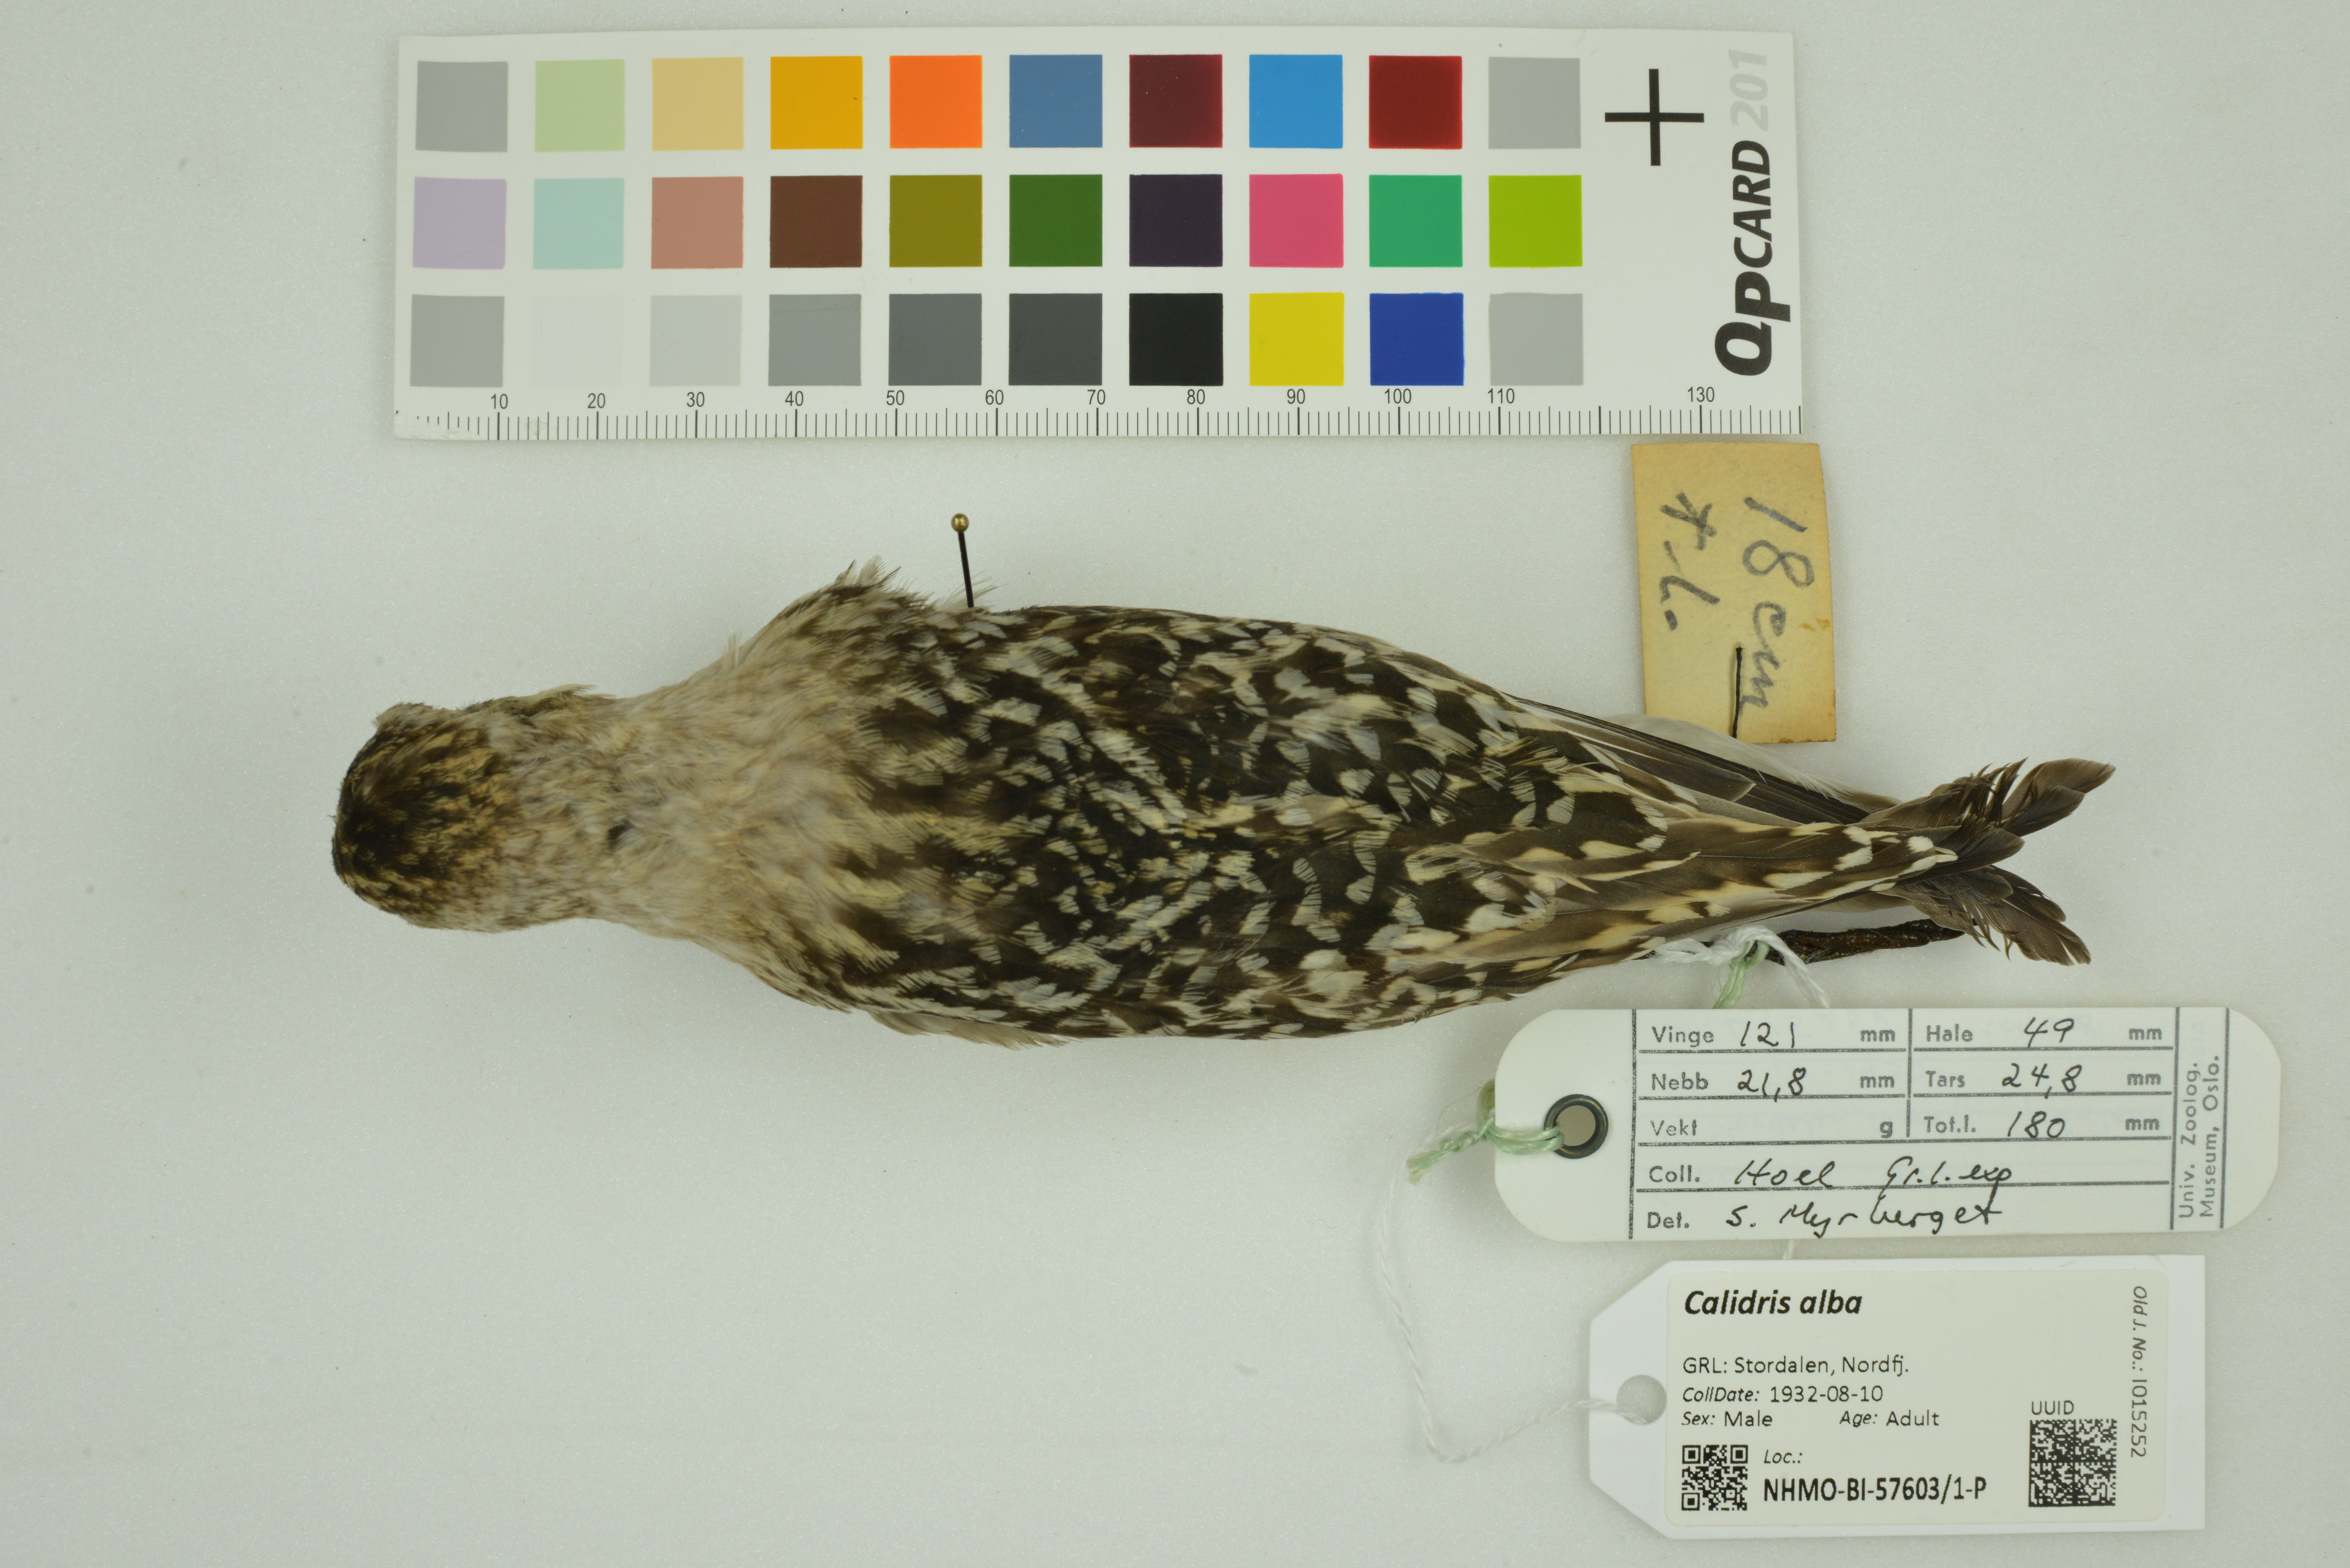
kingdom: Animalia
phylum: Chordata
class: Aves
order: Charadriiformes
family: Scolopacidae
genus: Calidris
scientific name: Calidris alba
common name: Sanderling
